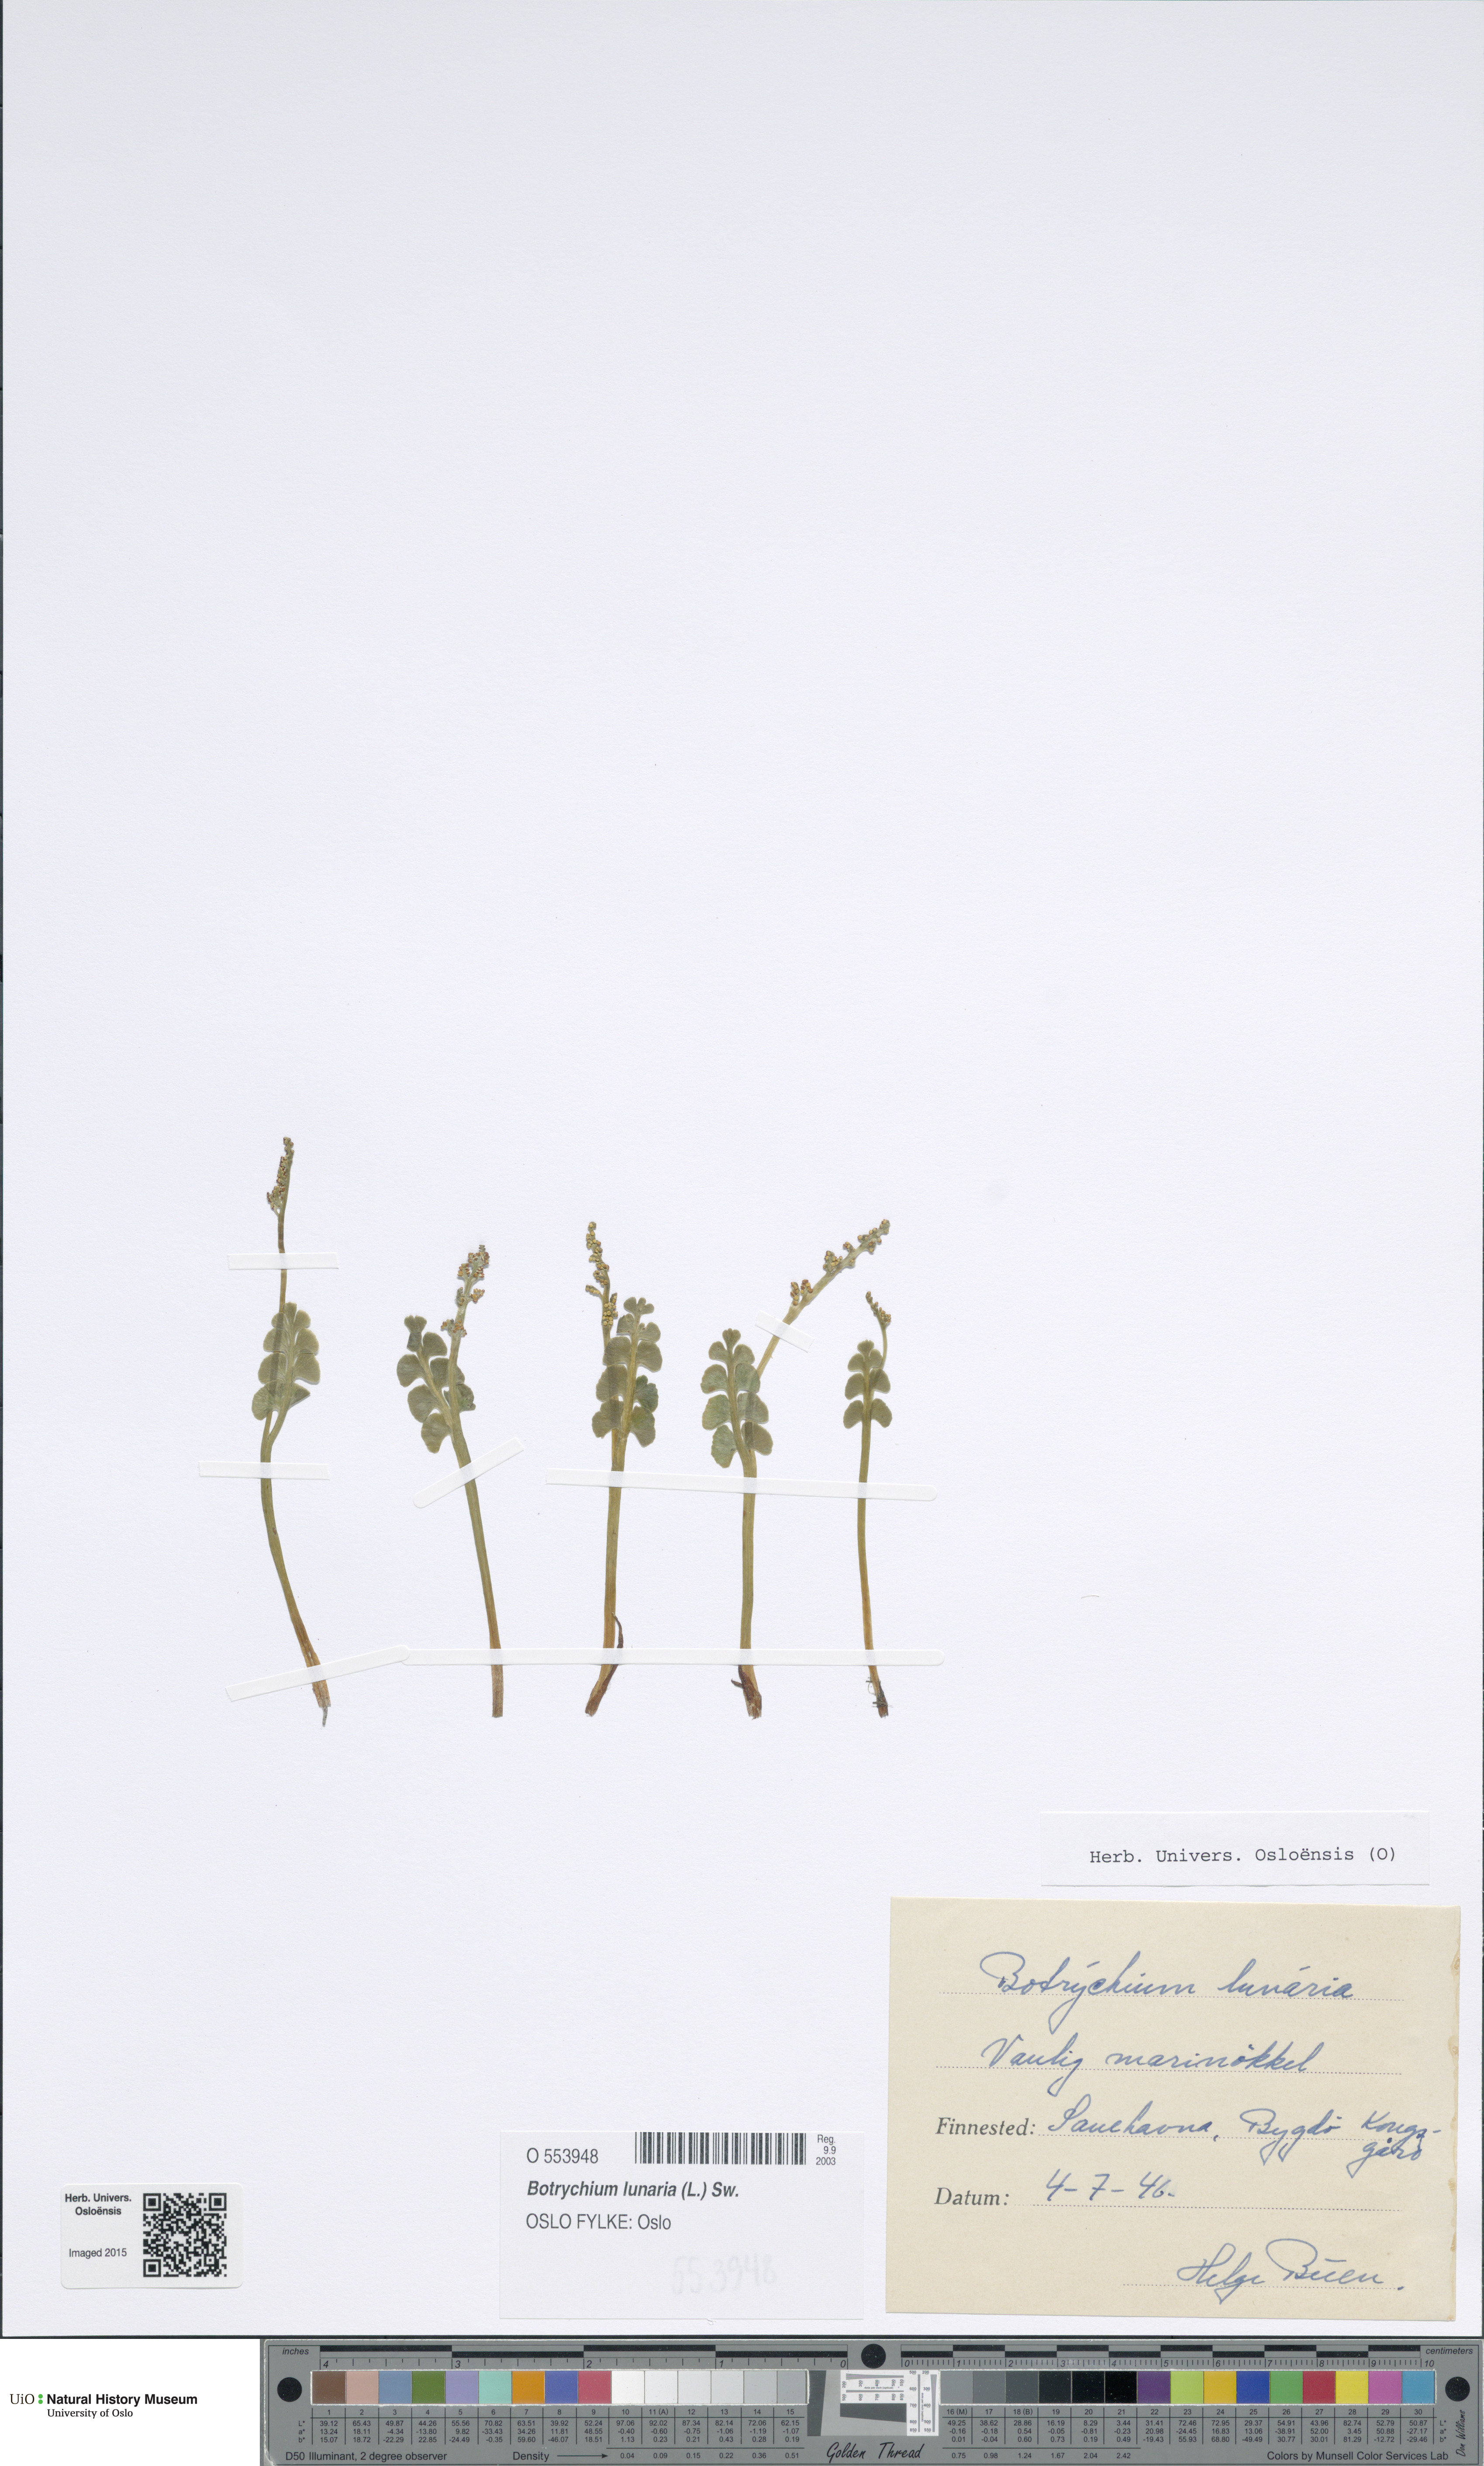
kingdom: Plantae
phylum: Tracheophyta
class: Polypodiopsida
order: Ophioglossales
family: Ophioglossaceae
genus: Botrychium
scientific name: Botrychium lunaria
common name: Moonwort
